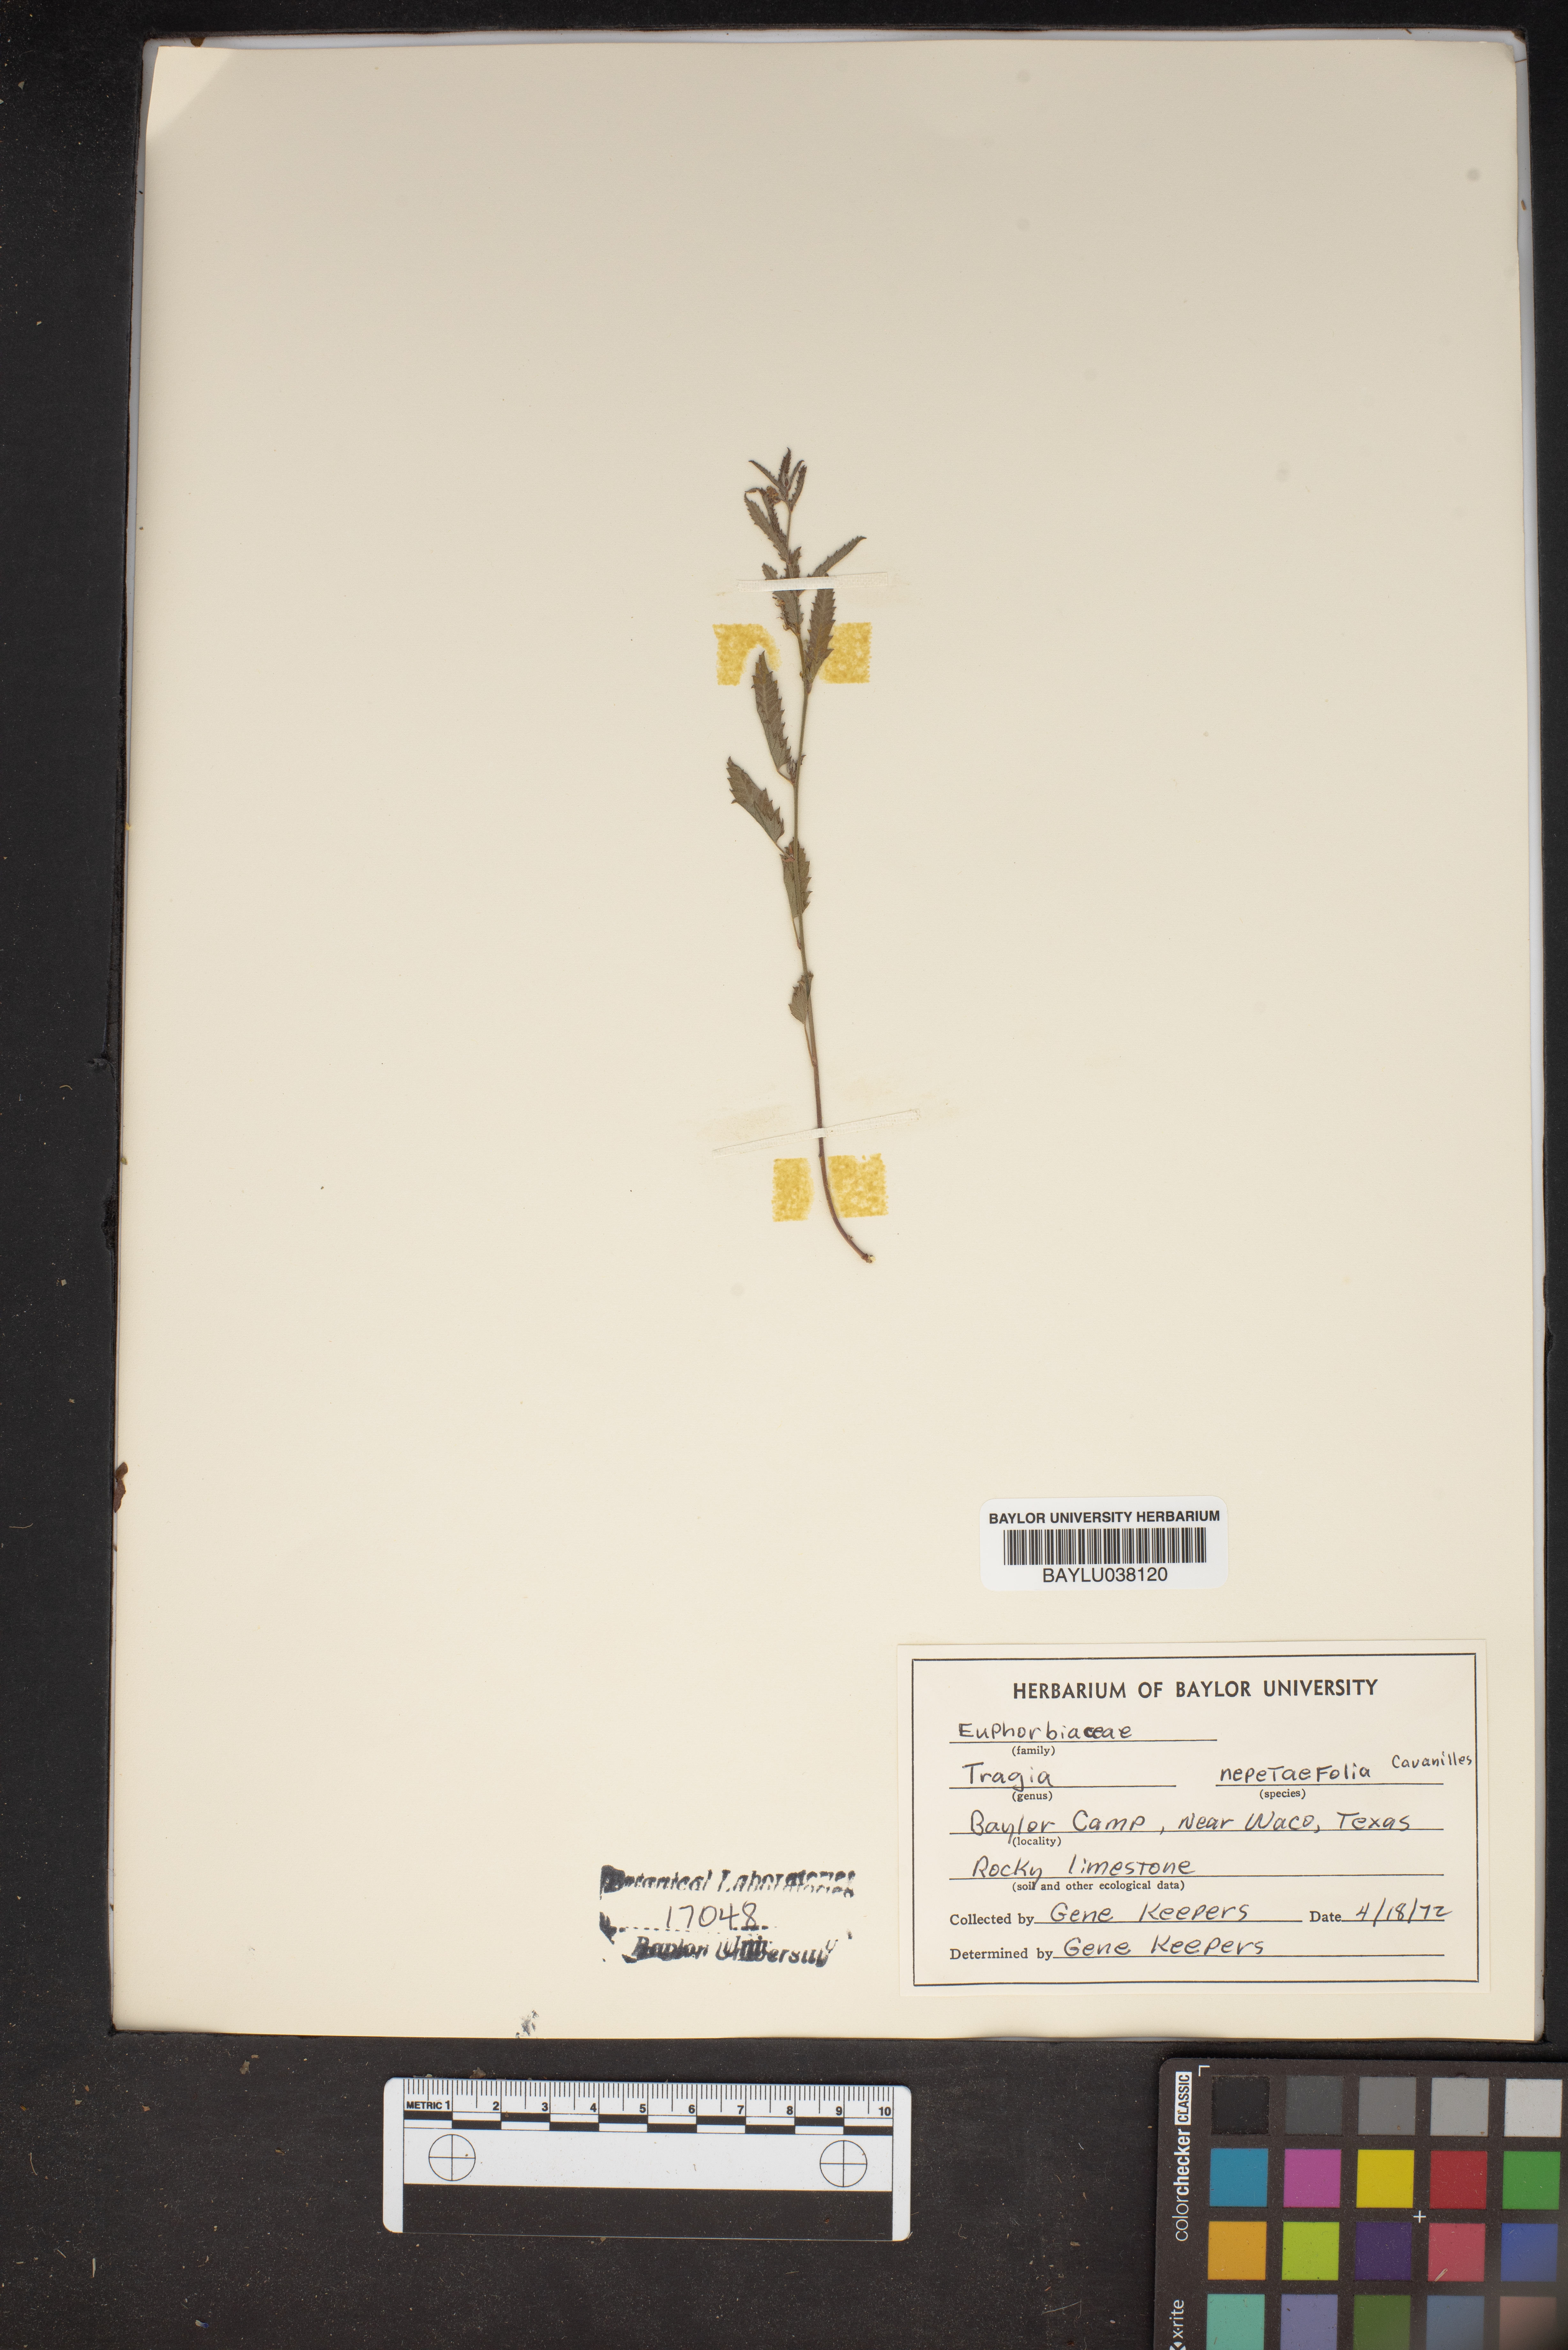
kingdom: Plantae
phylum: Tracheophyta
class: Magnoliopsida
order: Malpighiales
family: Euphorbiaceae
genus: Tragia
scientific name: Tragia nepetifolia
